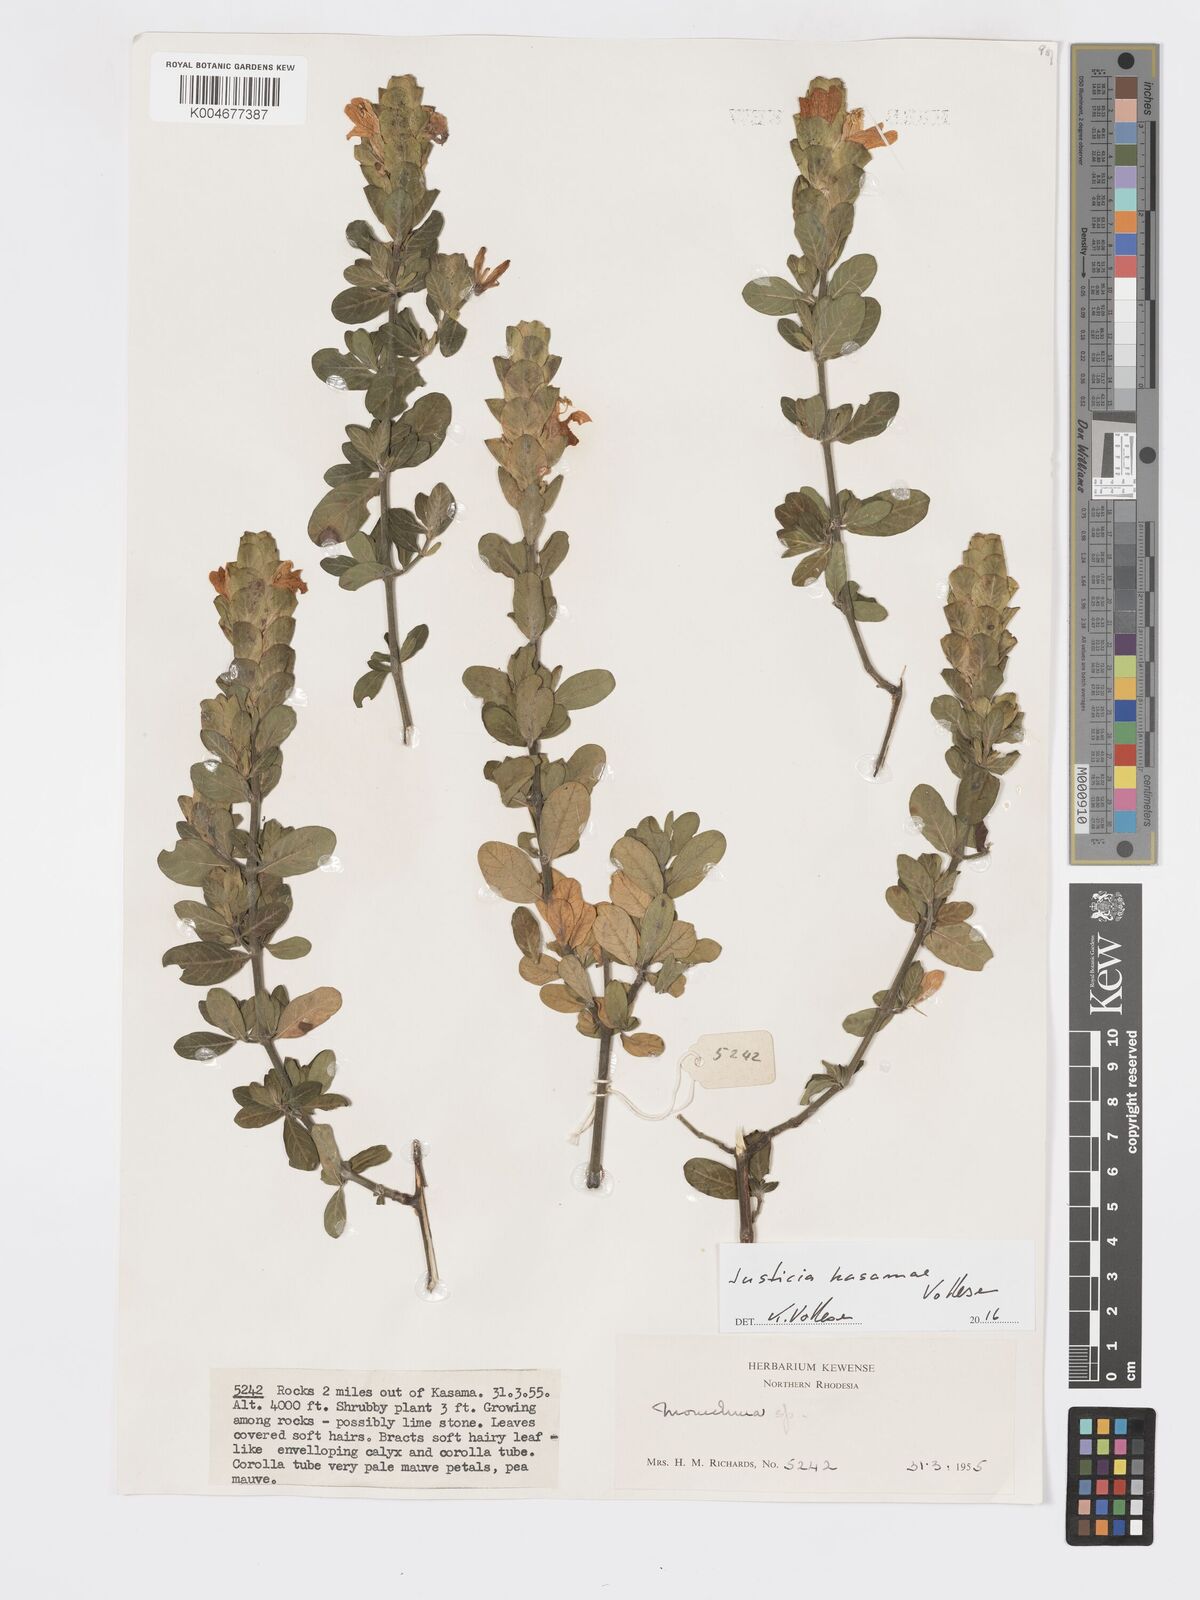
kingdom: Plantae
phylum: Tracheophyta
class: Magnoliopsida
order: Lamiales
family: Acanthaceae
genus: Pogonospermum
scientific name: Pogonospermum
